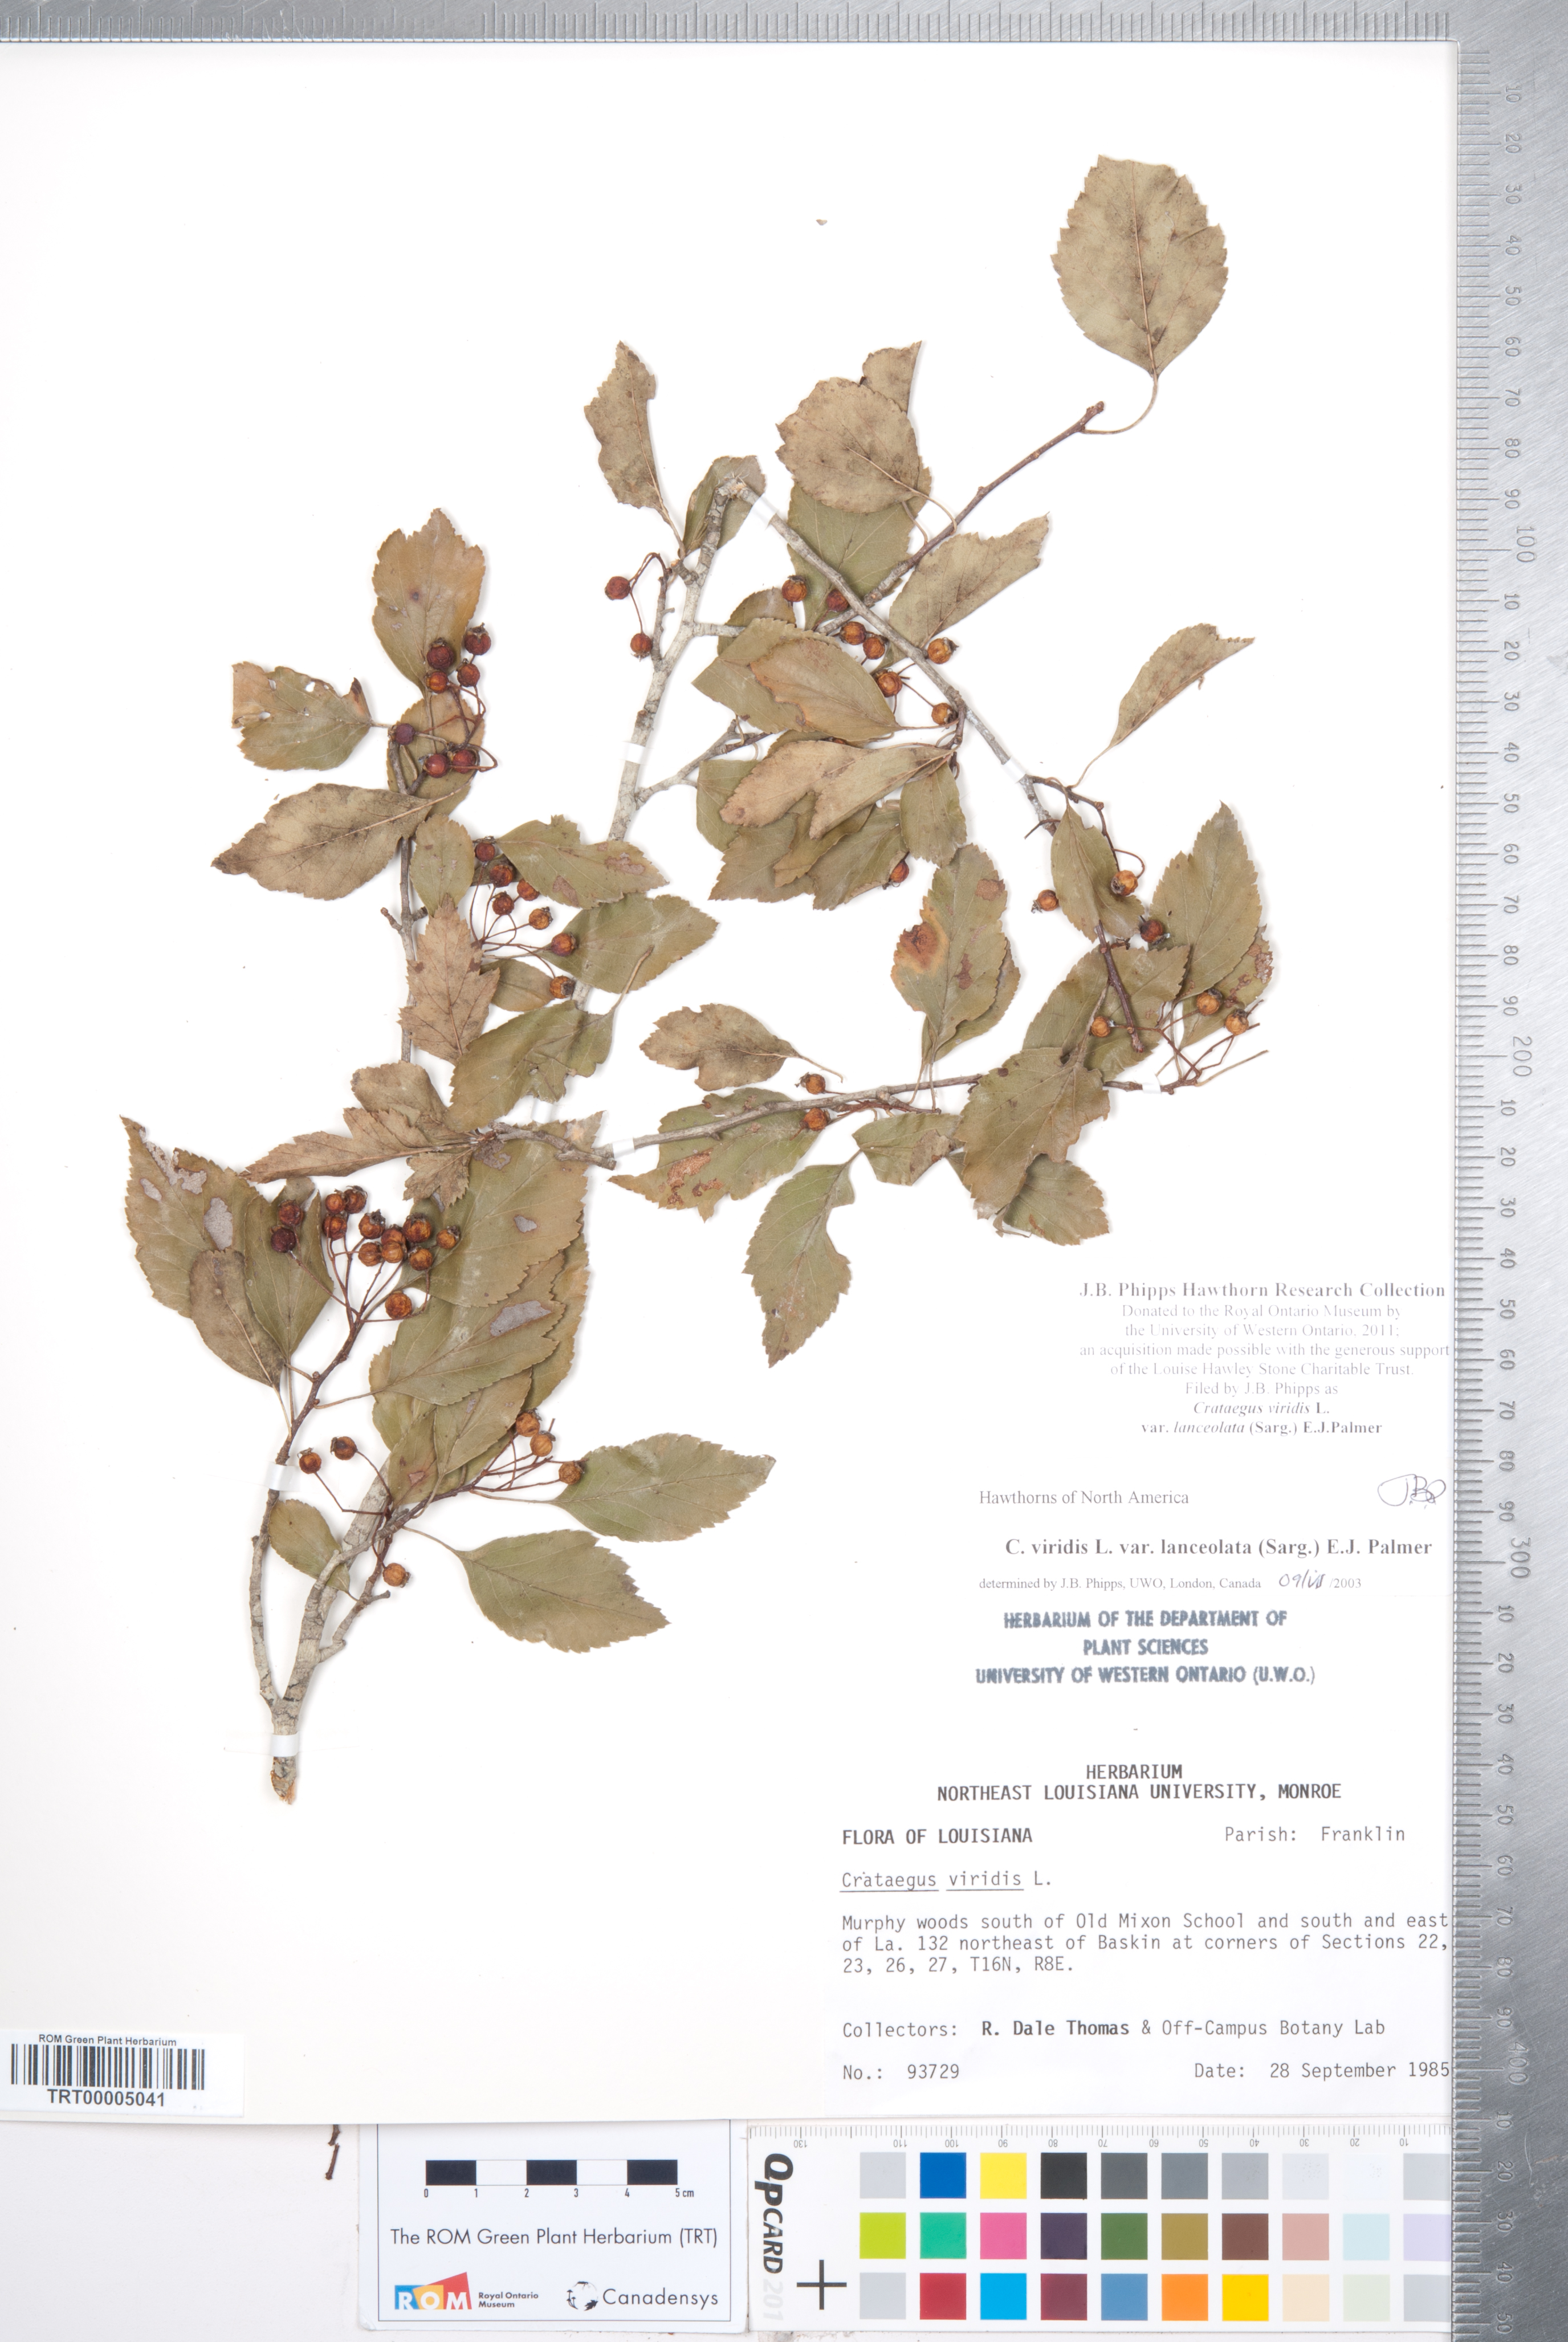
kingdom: Plantae
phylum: Tracheophyta
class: Magnoliopsida
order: Rosales
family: Rosaceae
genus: Crataegus
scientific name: Crataegus viridis
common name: Southernthorn
